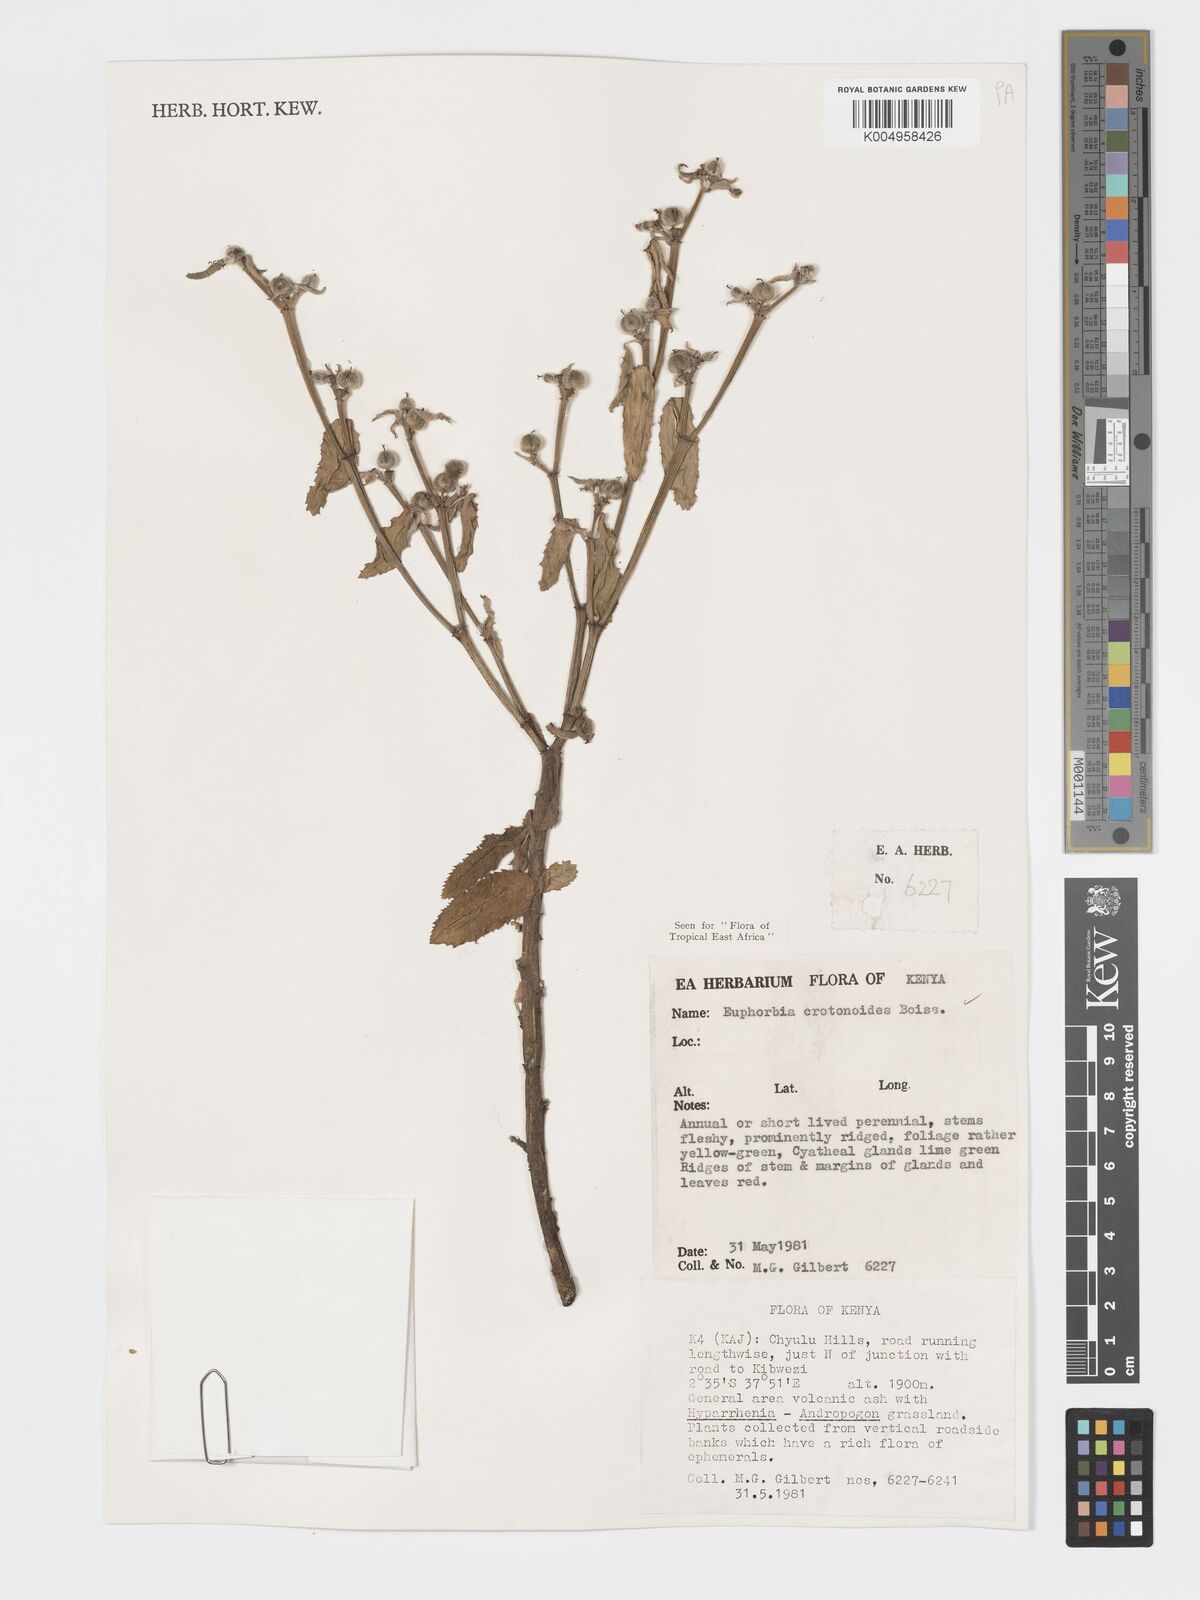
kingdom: Plantae
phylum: Tracheophyta
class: Magnoliopsida
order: Malpighiales
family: Euphorbiaceae
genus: Euphorbia
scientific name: Euphorbia crotonoides
